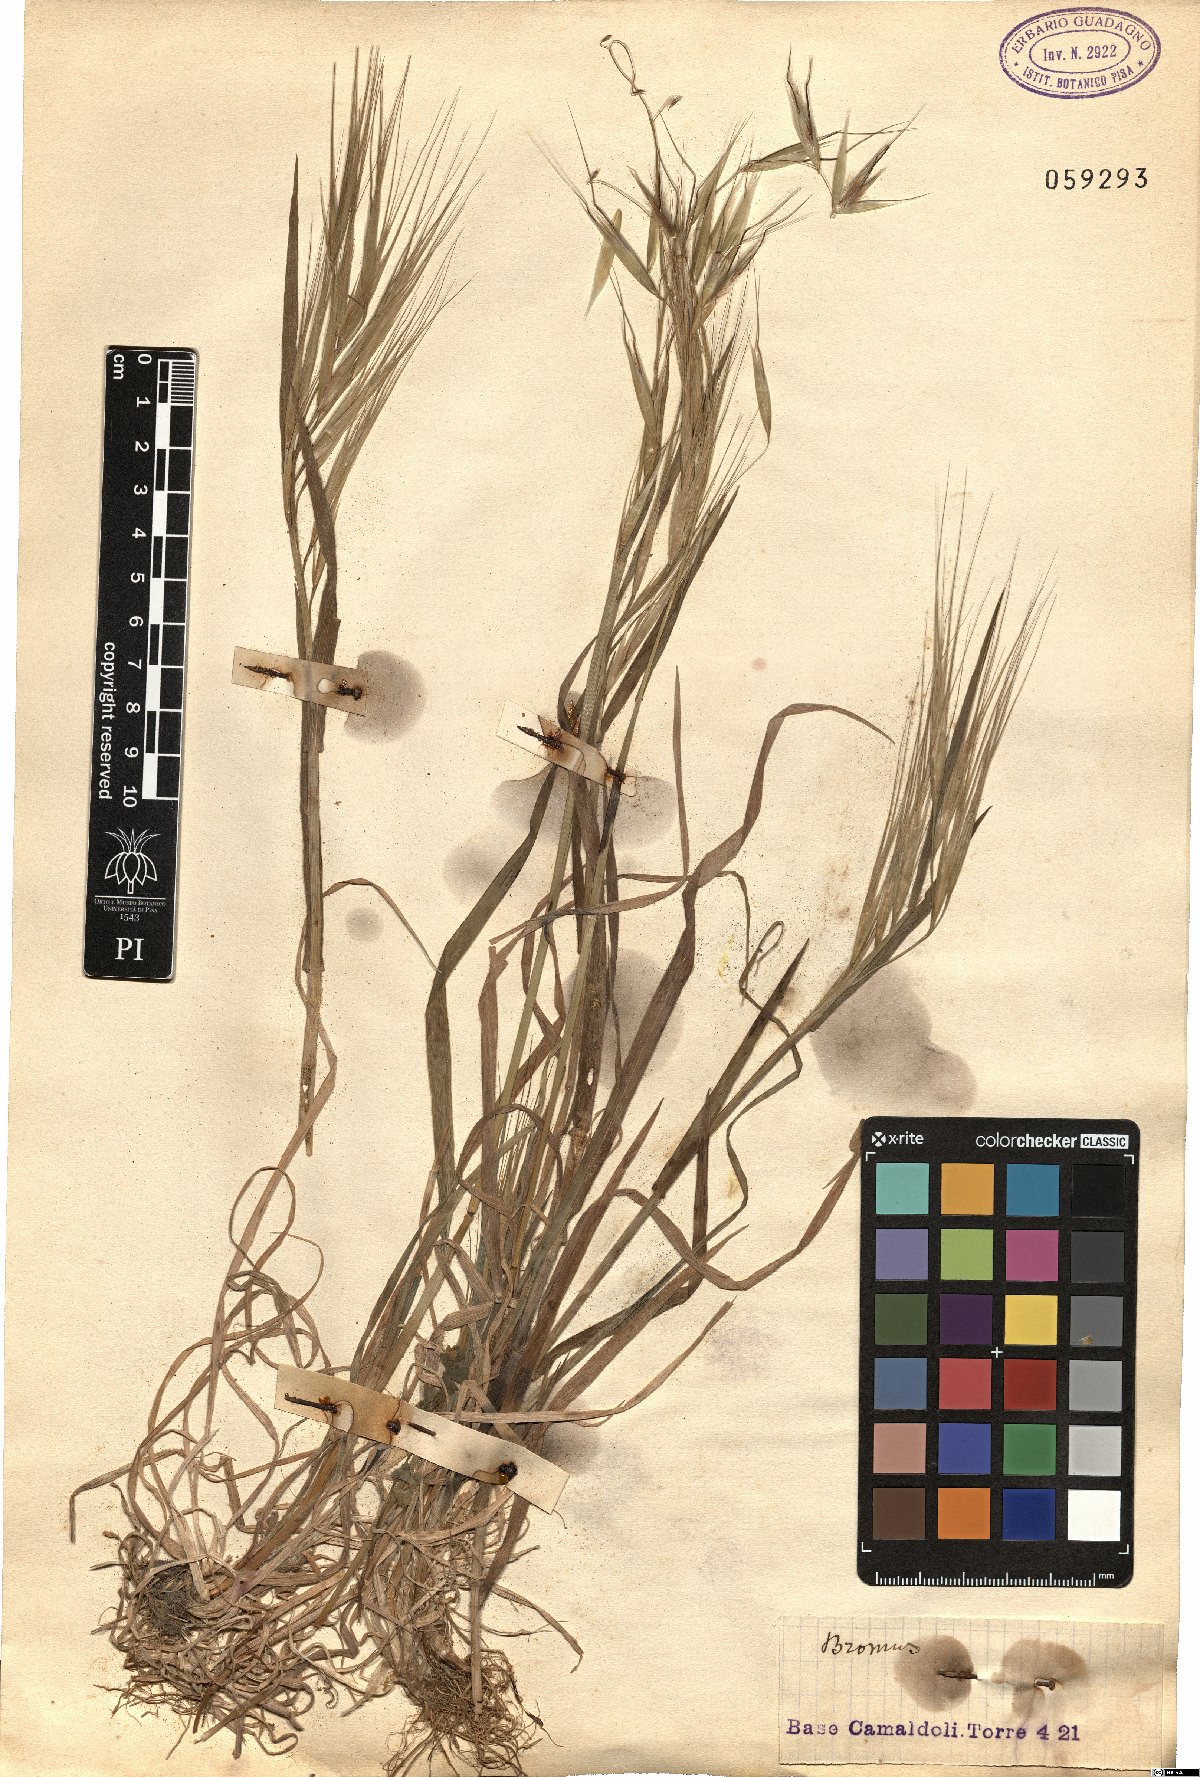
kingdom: Plantae
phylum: Tracheophyta
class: Liliopsida
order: Poales
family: Poaceae
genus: Bromus
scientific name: Bromus
